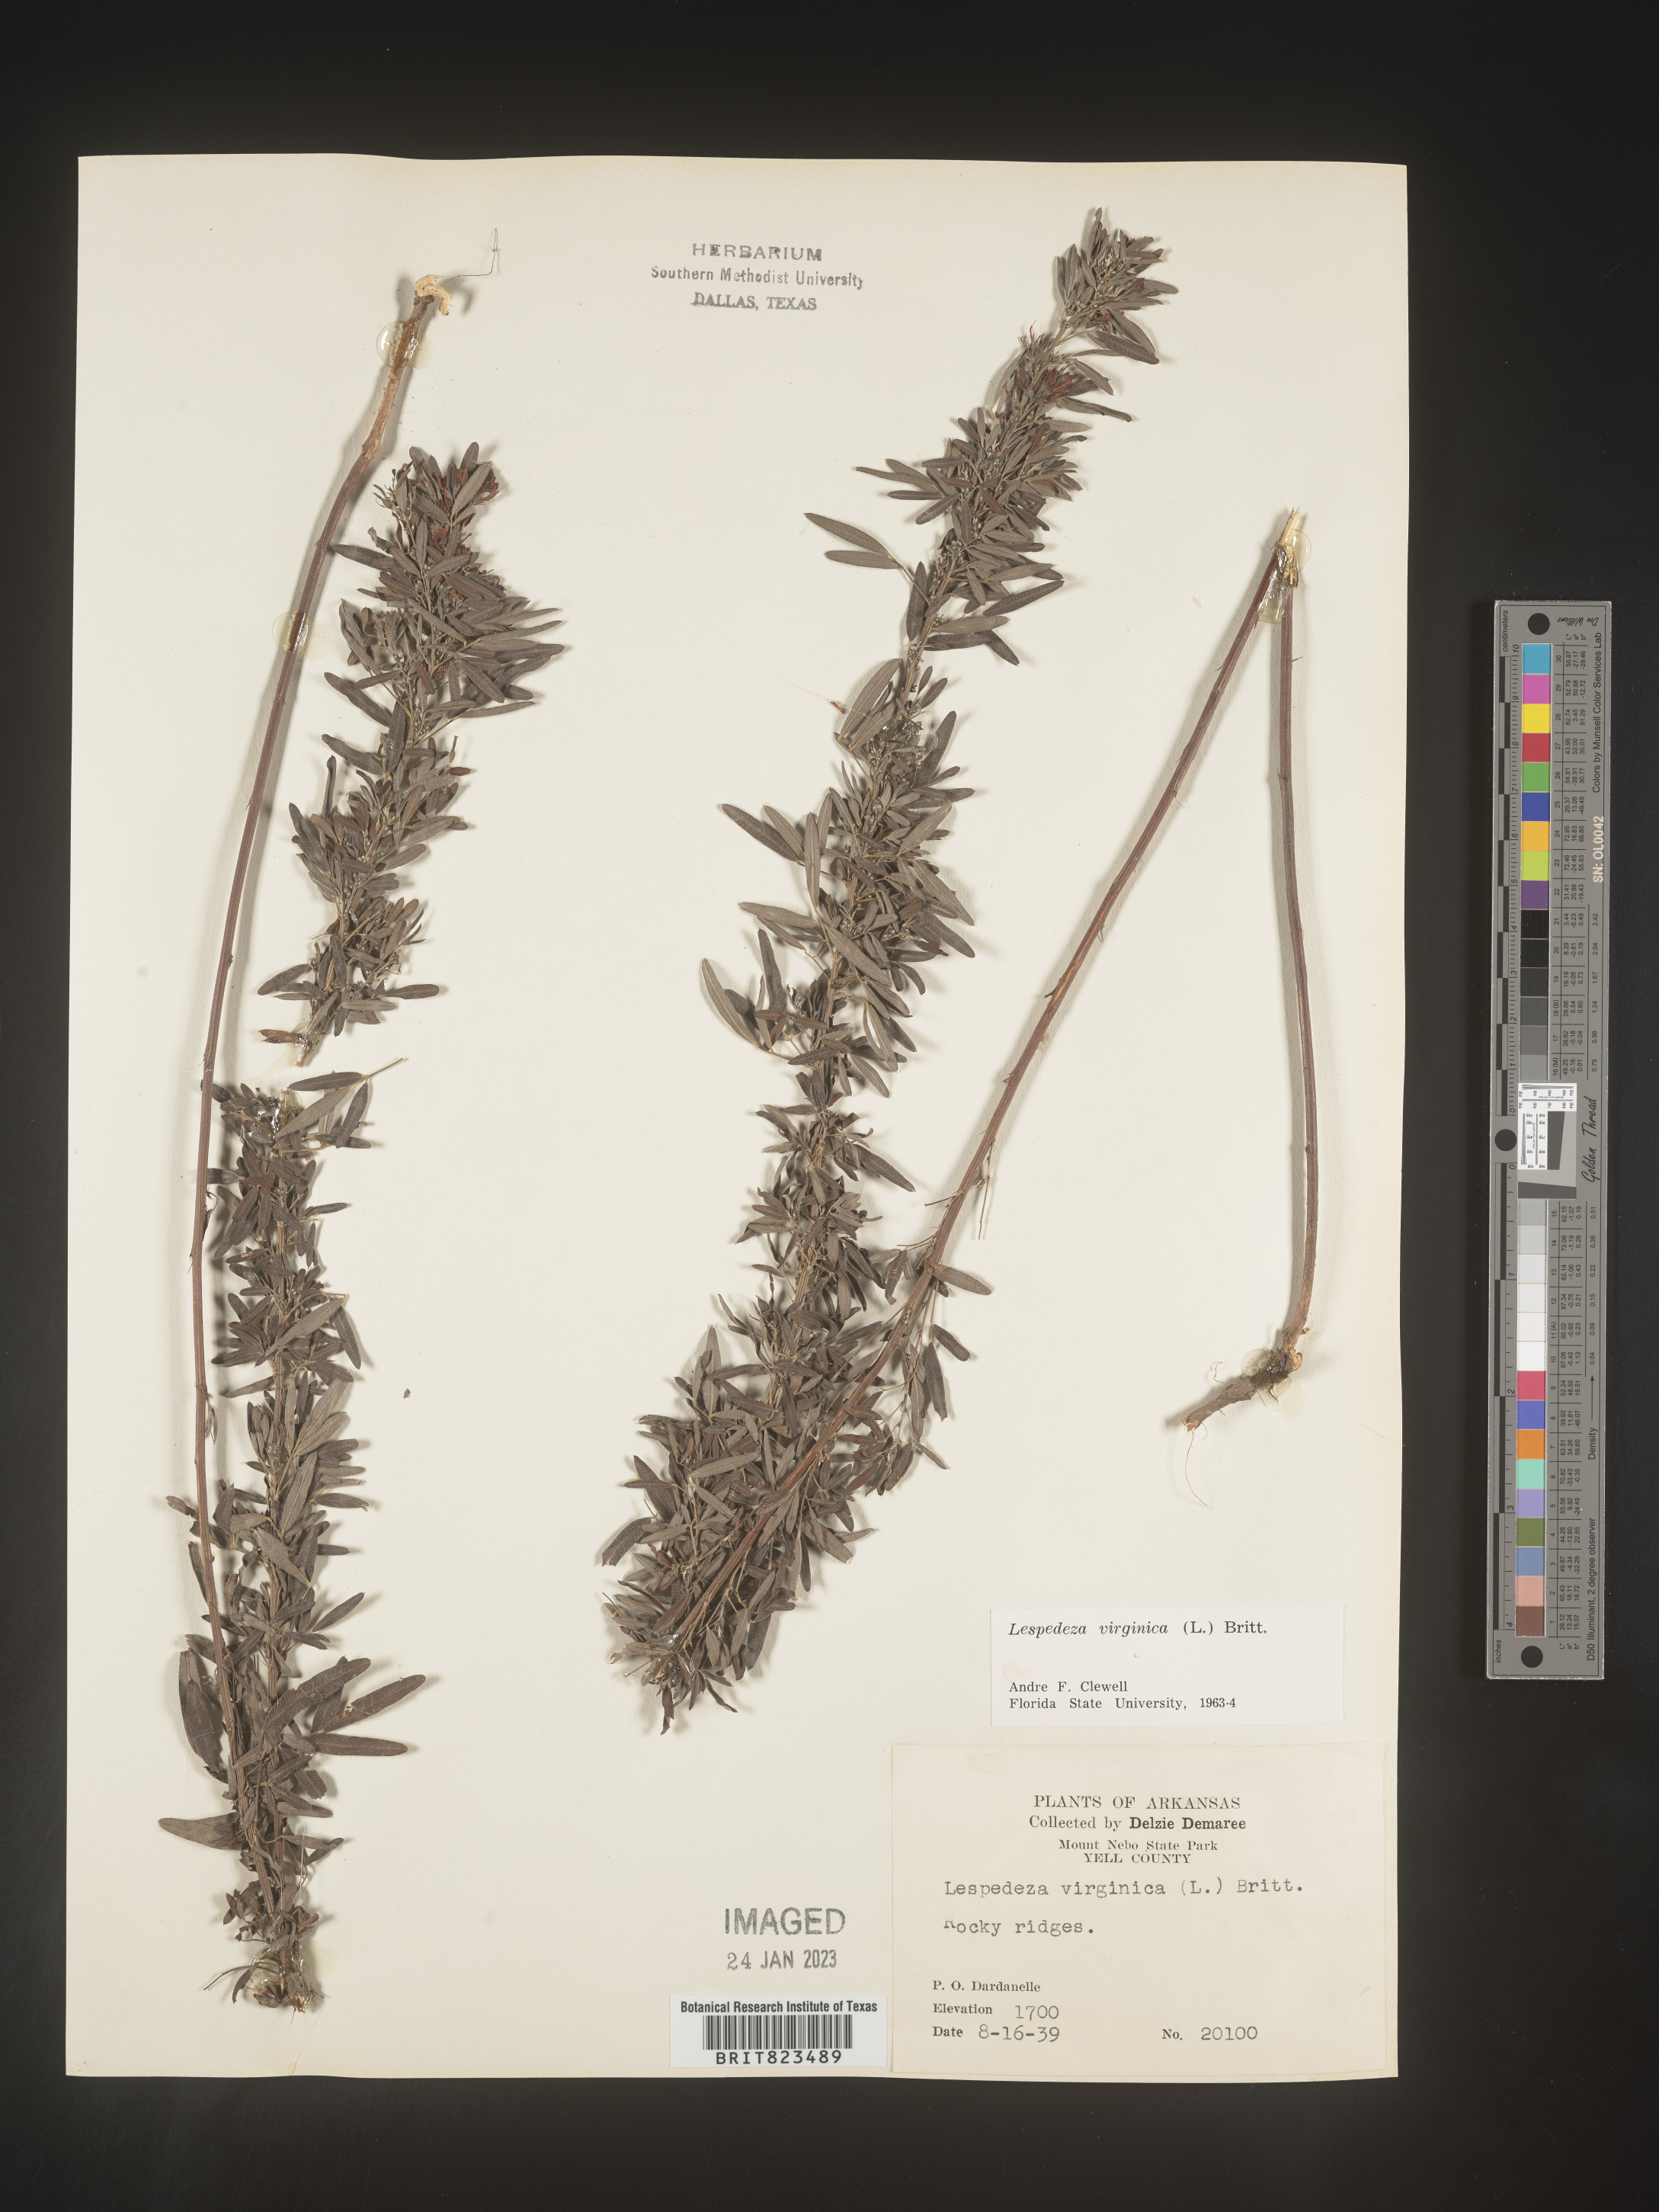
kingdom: Plantae
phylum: Tracheophyta
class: Magnoliopsida
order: Fabales
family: Fabaceae
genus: Lespedeza
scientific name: Lespedeza virginica
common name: Slender bush-clover
